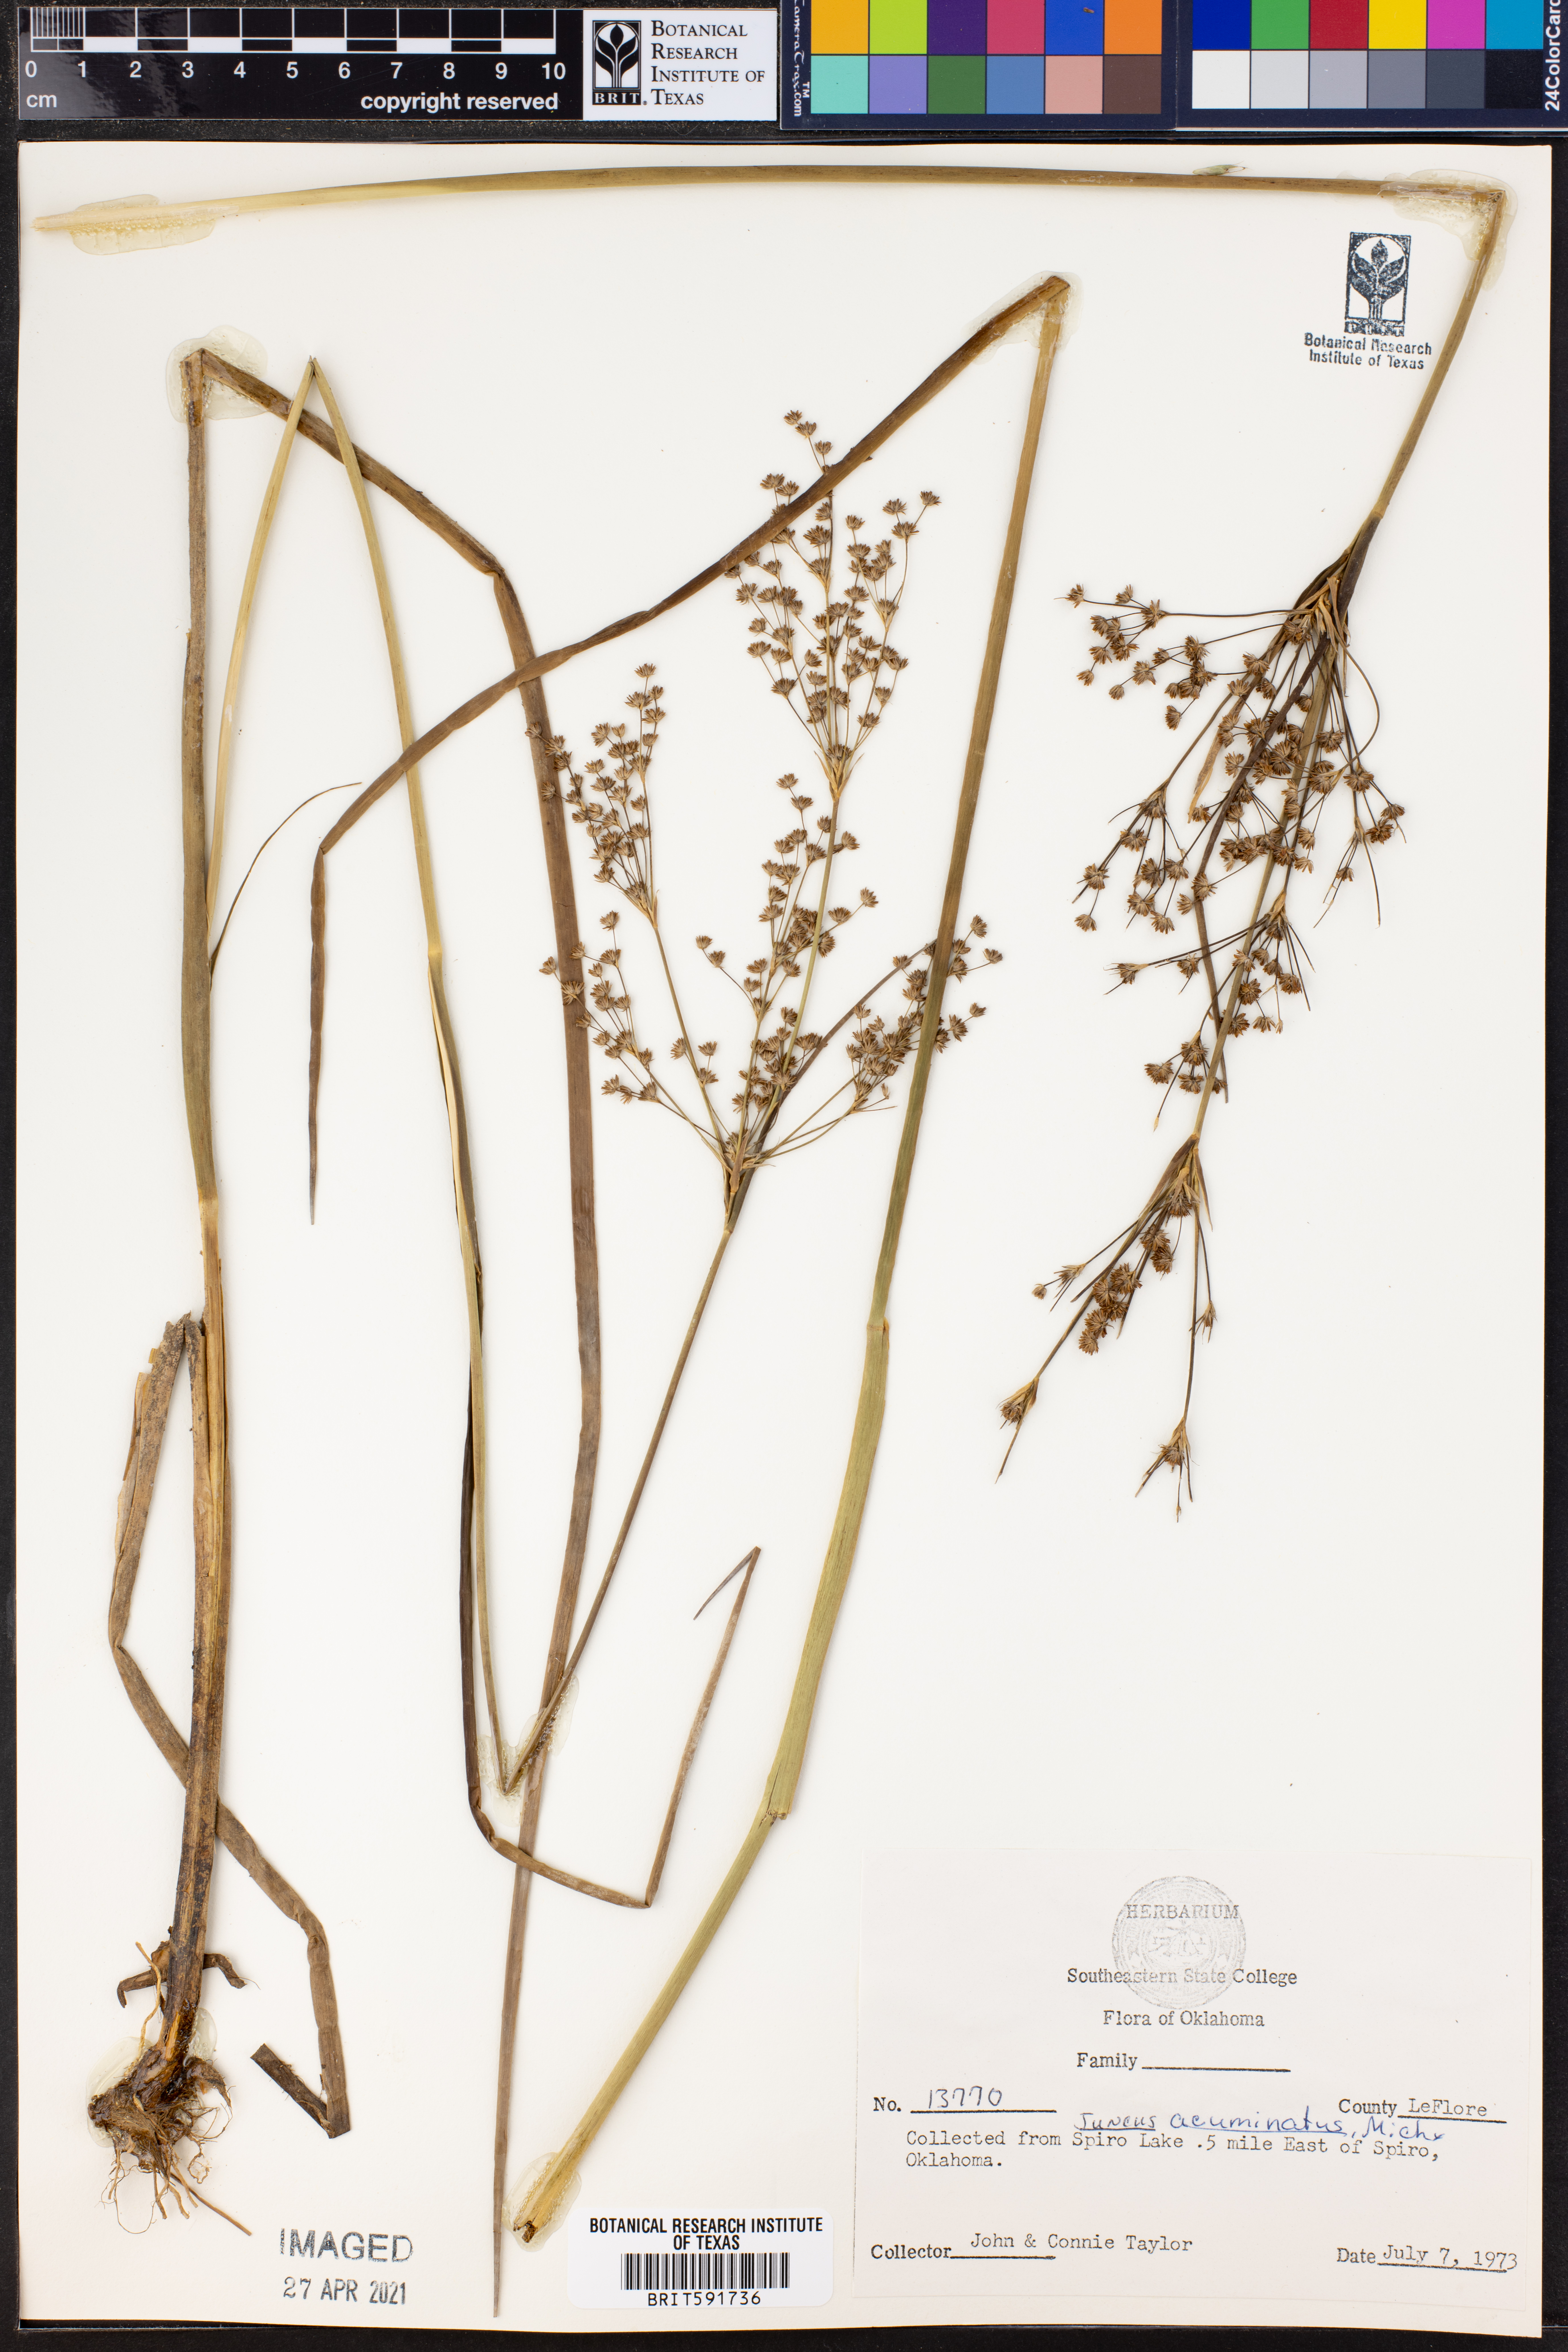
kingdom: Plantae
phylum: Tracheophyta
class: Liliopsida
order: Poales
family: Juncaceae
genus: Juncus
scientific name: Juncus acuminatus
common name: Knotty-leaved rush
